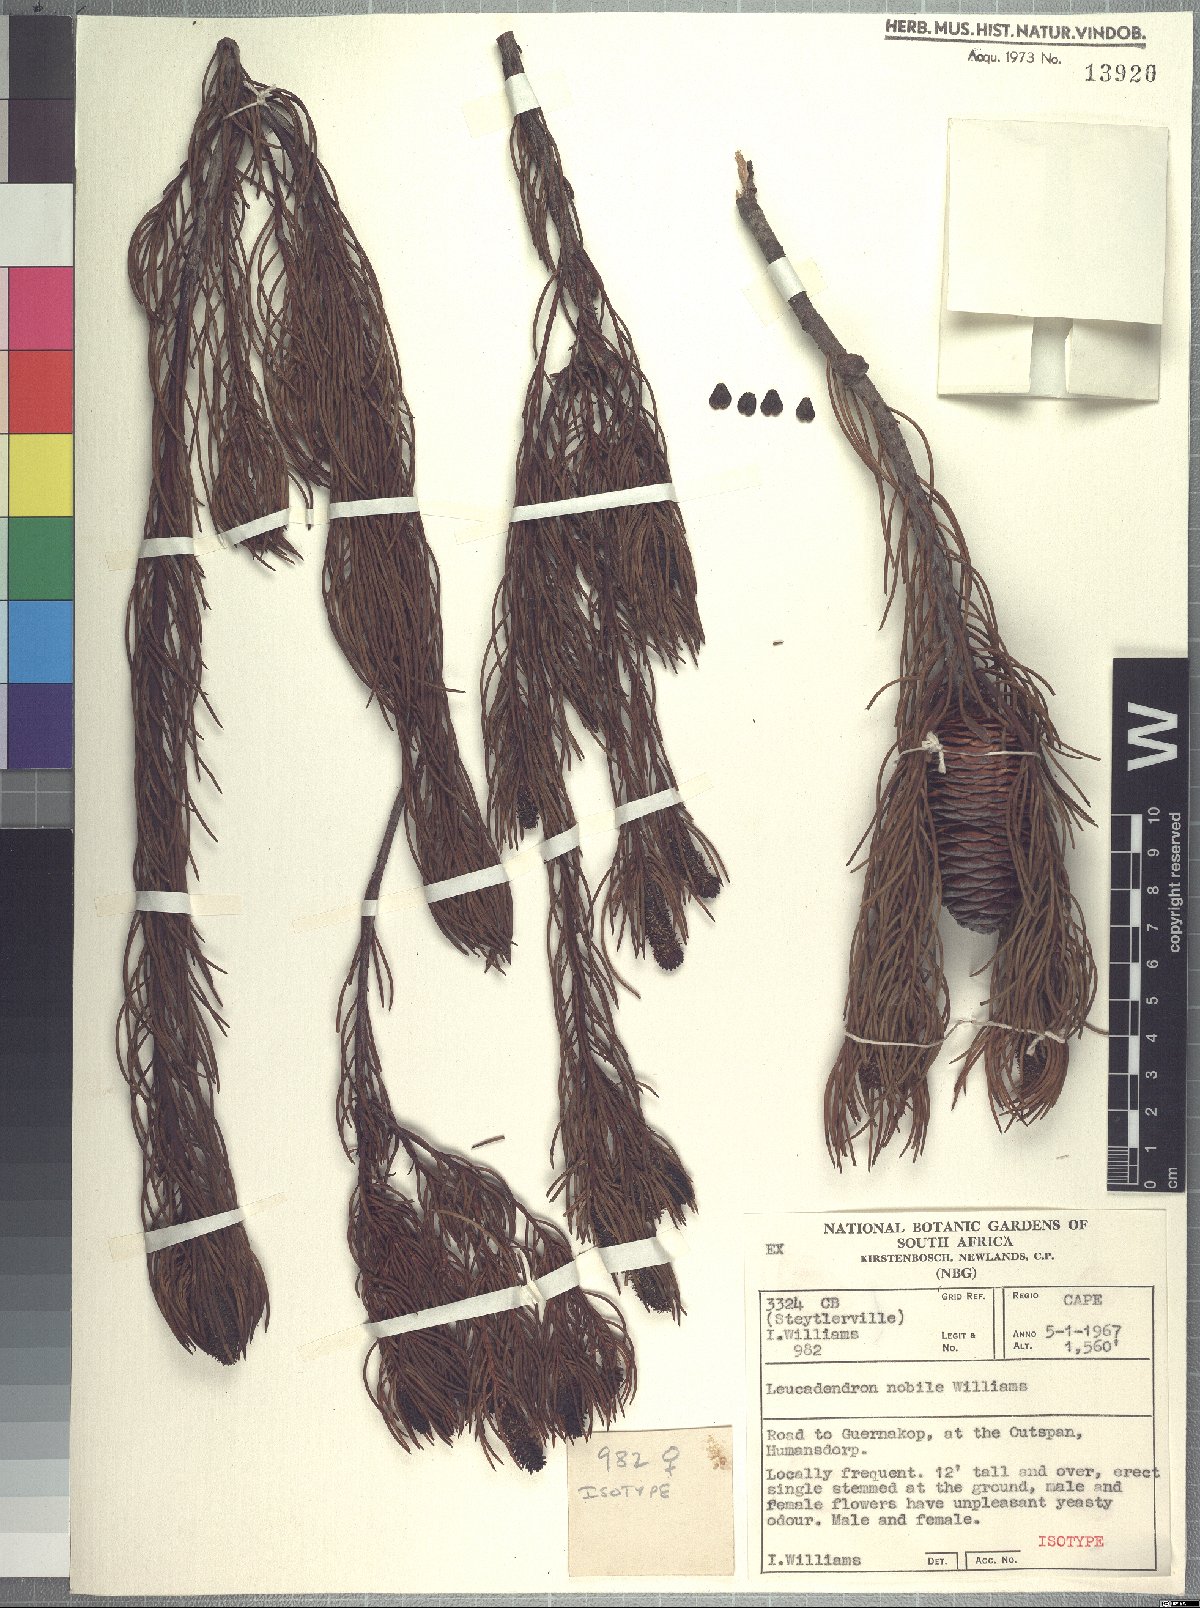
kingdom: Plantae
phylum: Tracheophyta
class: Magnoliopsida
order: Proteales
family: Proteaceae
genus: Leucadendron
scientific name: Leucadendron nobile
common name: Karoo conebush
